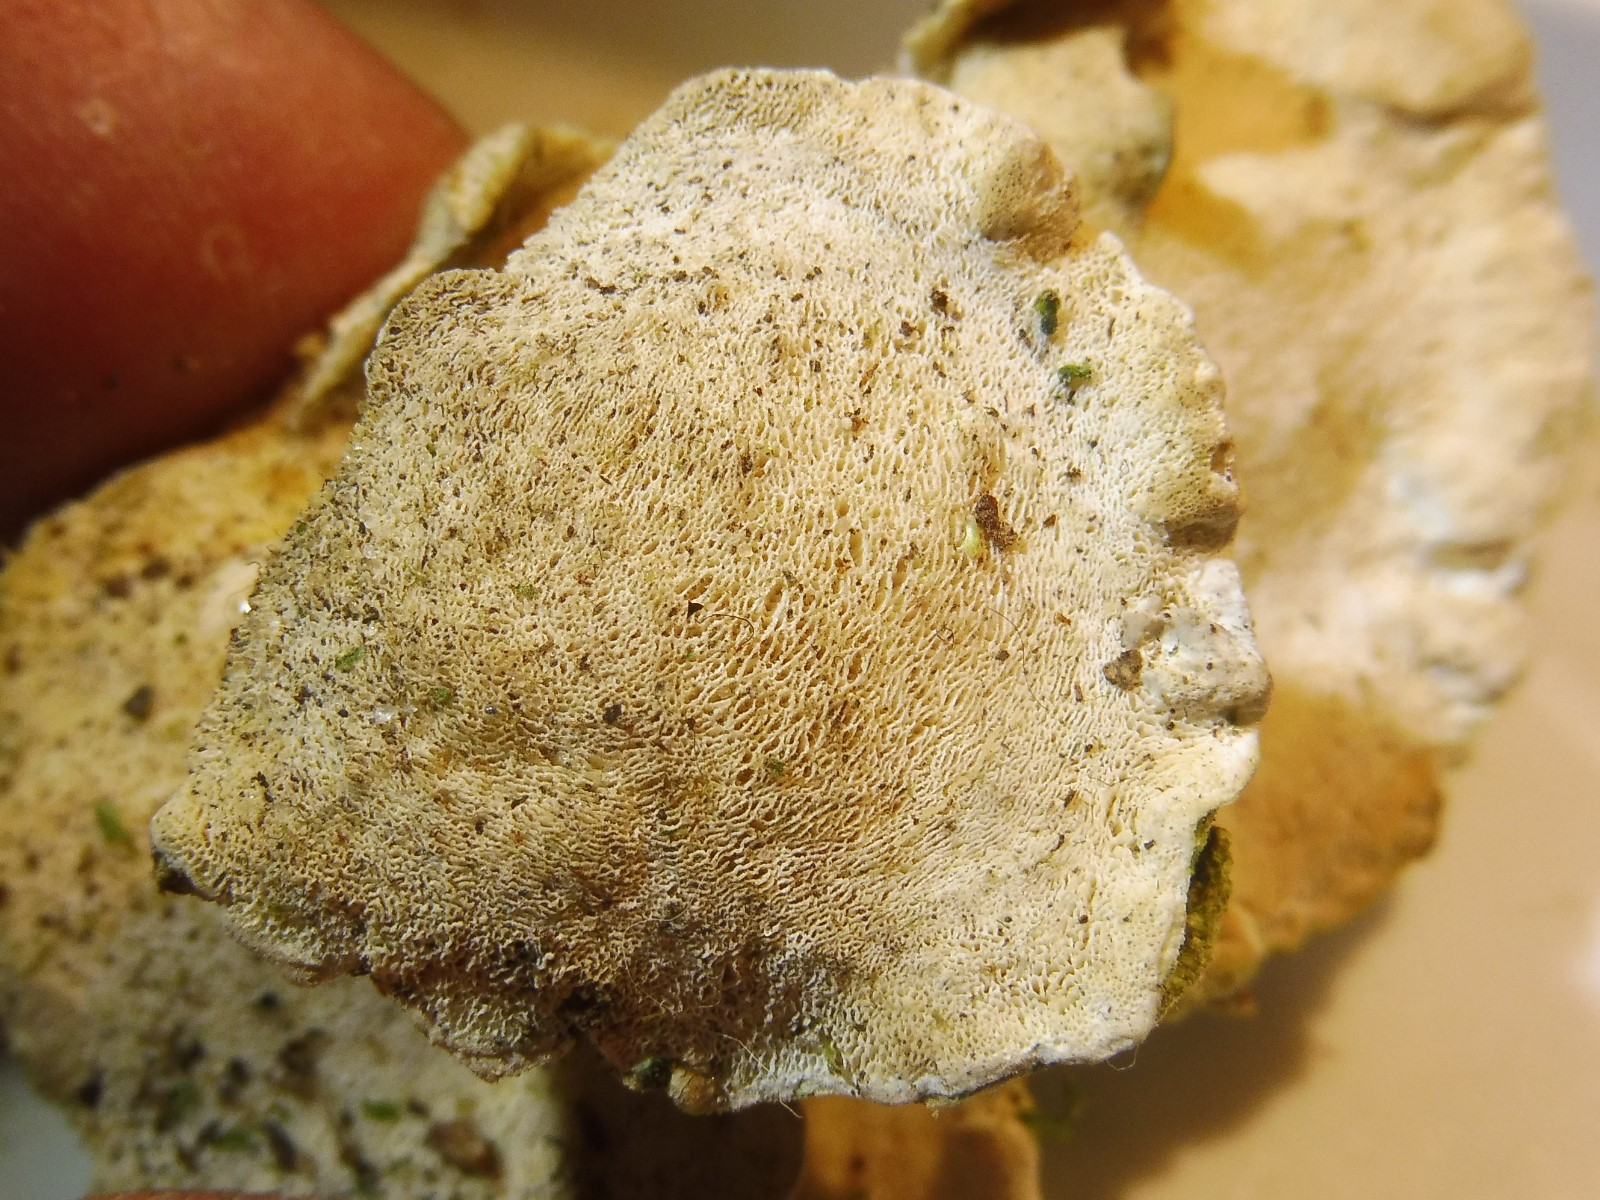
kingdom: Fungi
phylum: Basidiomycota
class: Agaricomycetes
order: Polyporales
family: Polyporaceae
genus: Trametes
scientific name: Trametes gibbosa
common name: puklet læderporesvamp
